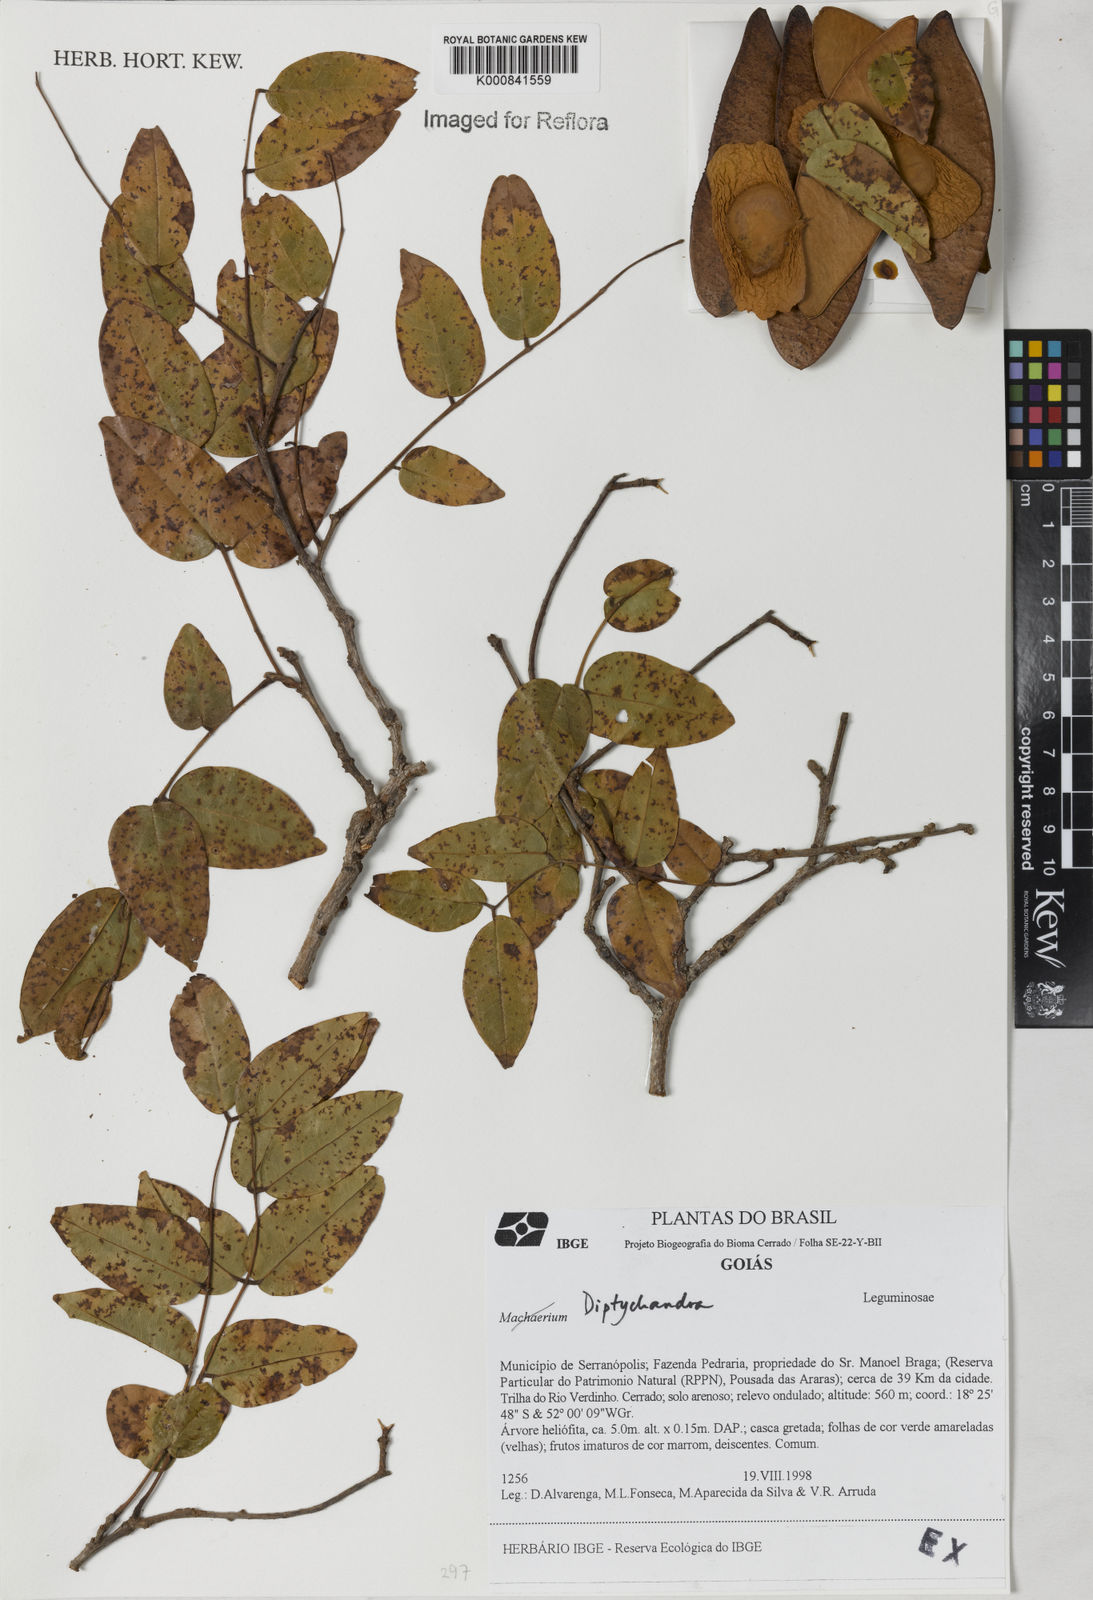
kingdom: Plantae
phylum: Tracheophyta
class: Magnoliopsida
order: Fabales
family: Fabaceae
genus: Diptychandra
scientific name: Diptychandra
